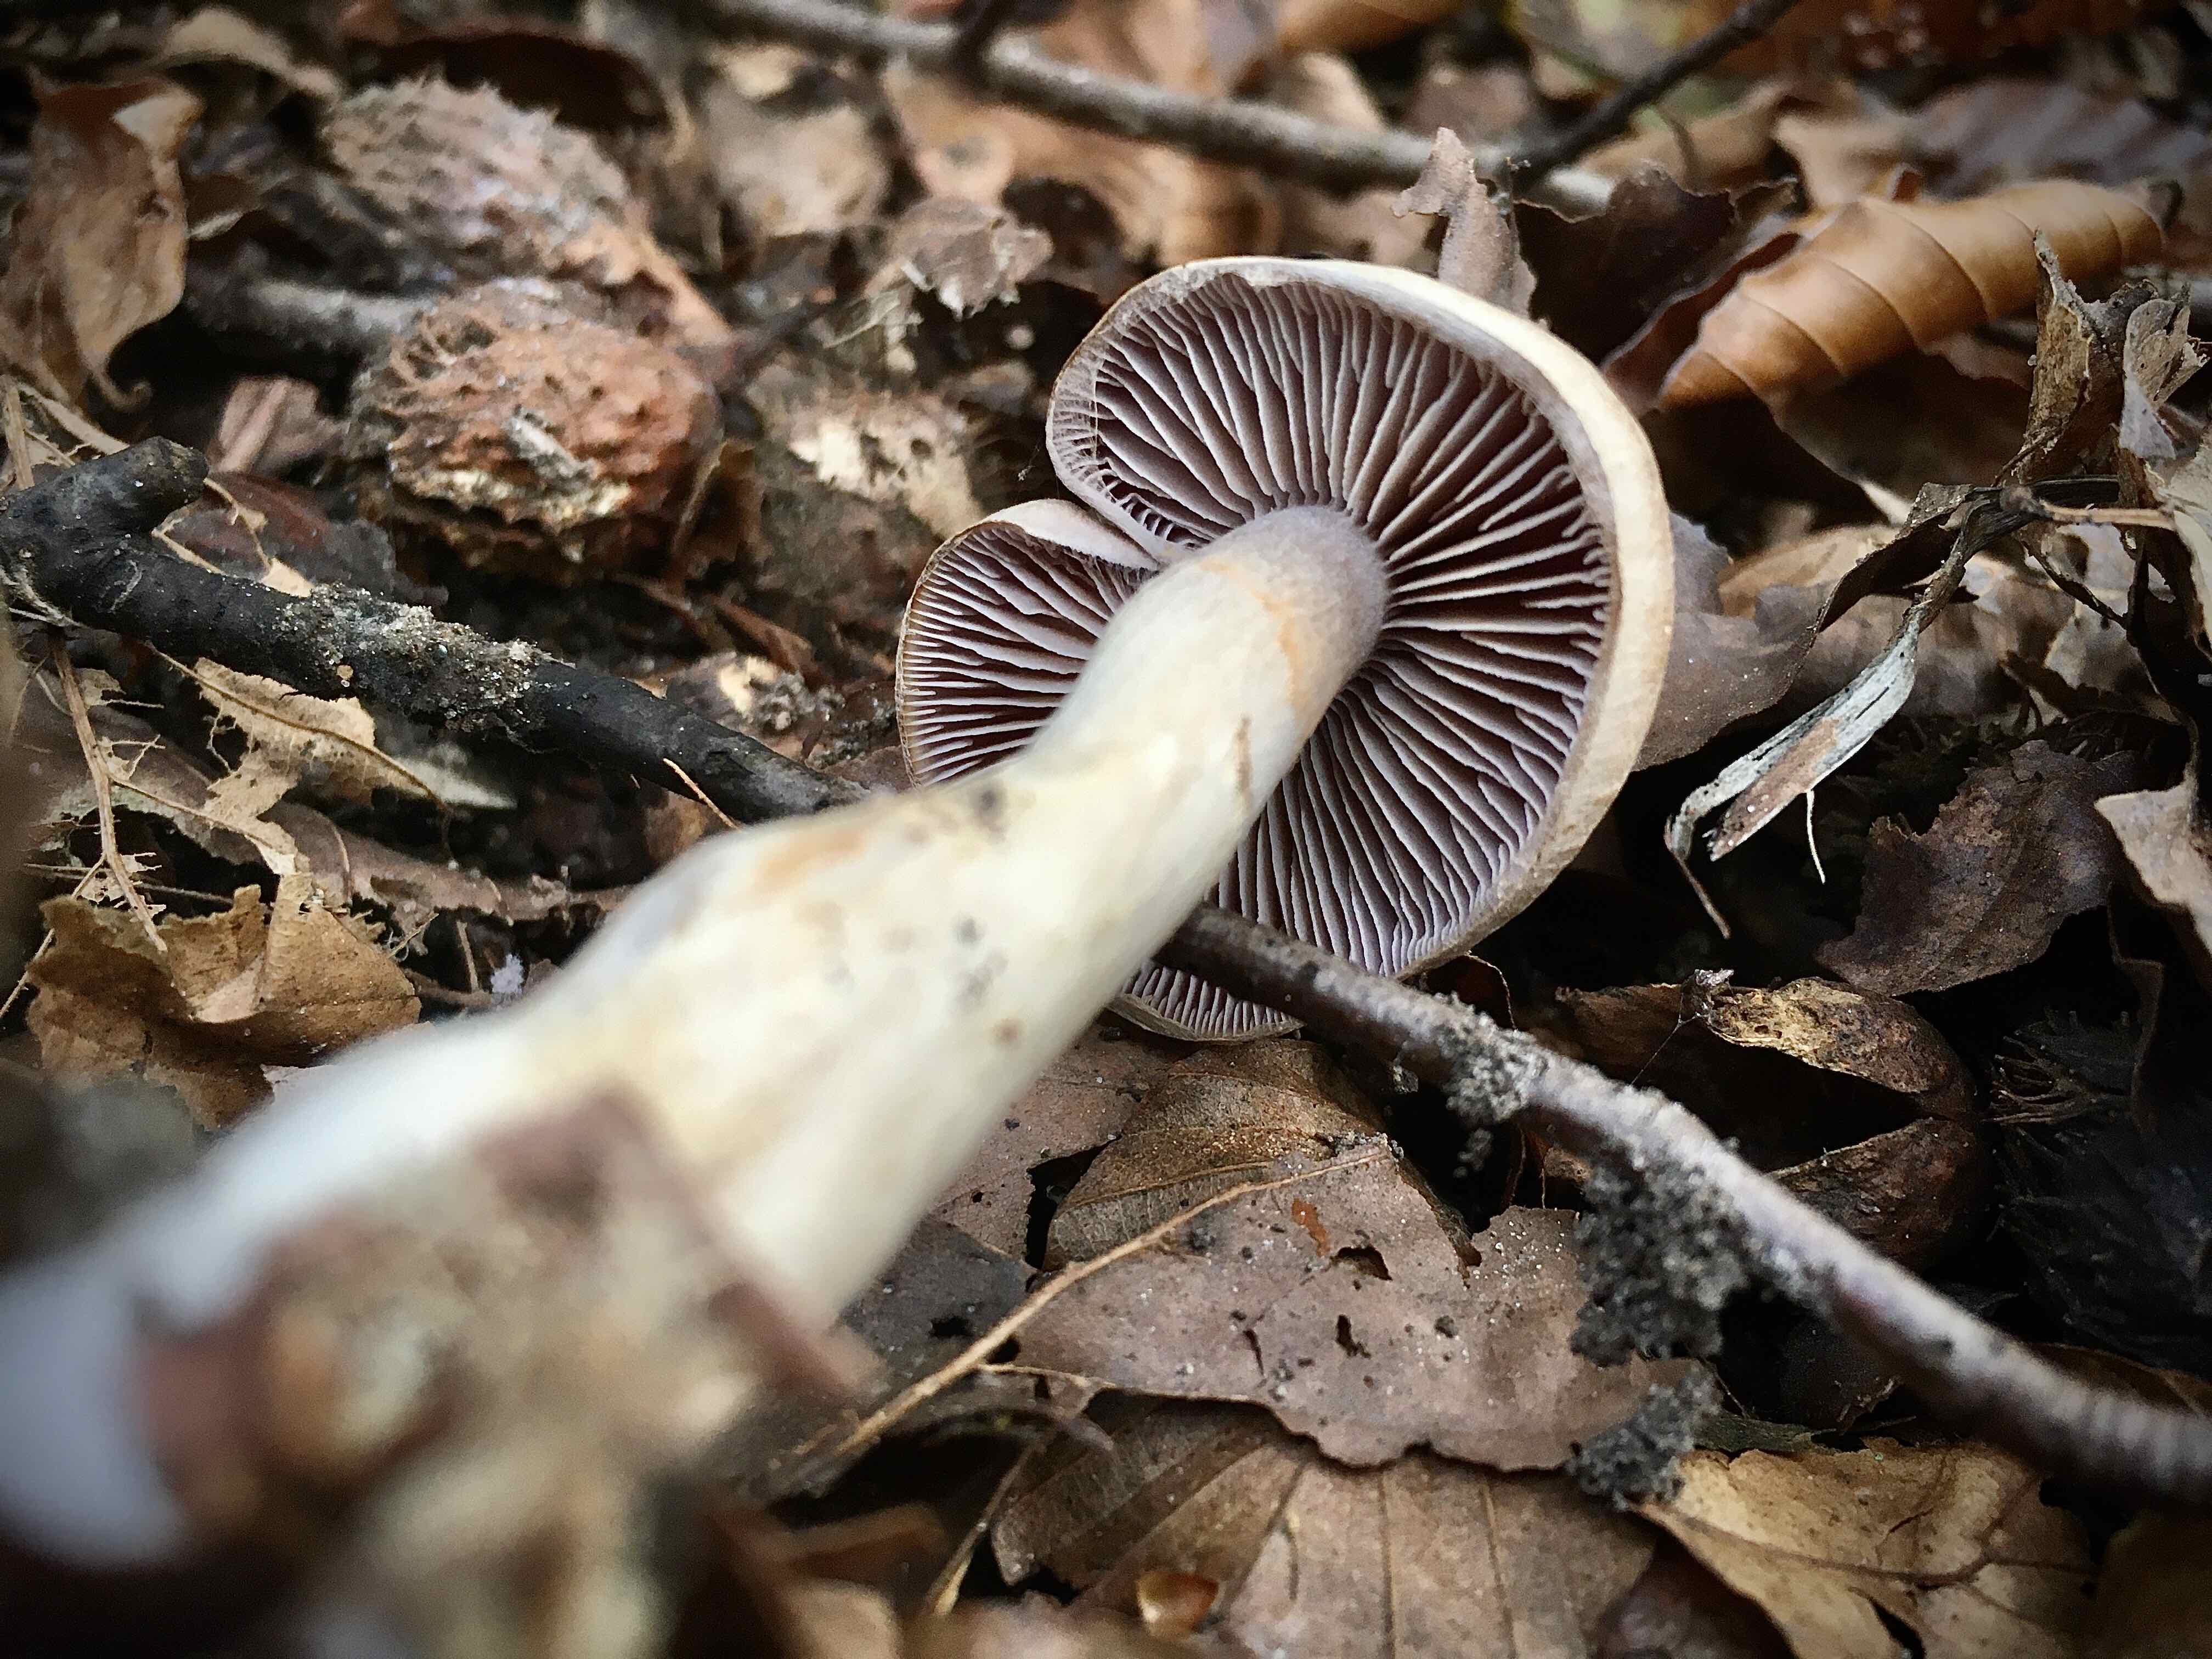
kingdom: Fungi
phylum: Basidiomycota
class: Agaricomycetes
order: Agaricales
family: Cortinariaceae
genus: Cortinarius
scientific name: Cortinarius
